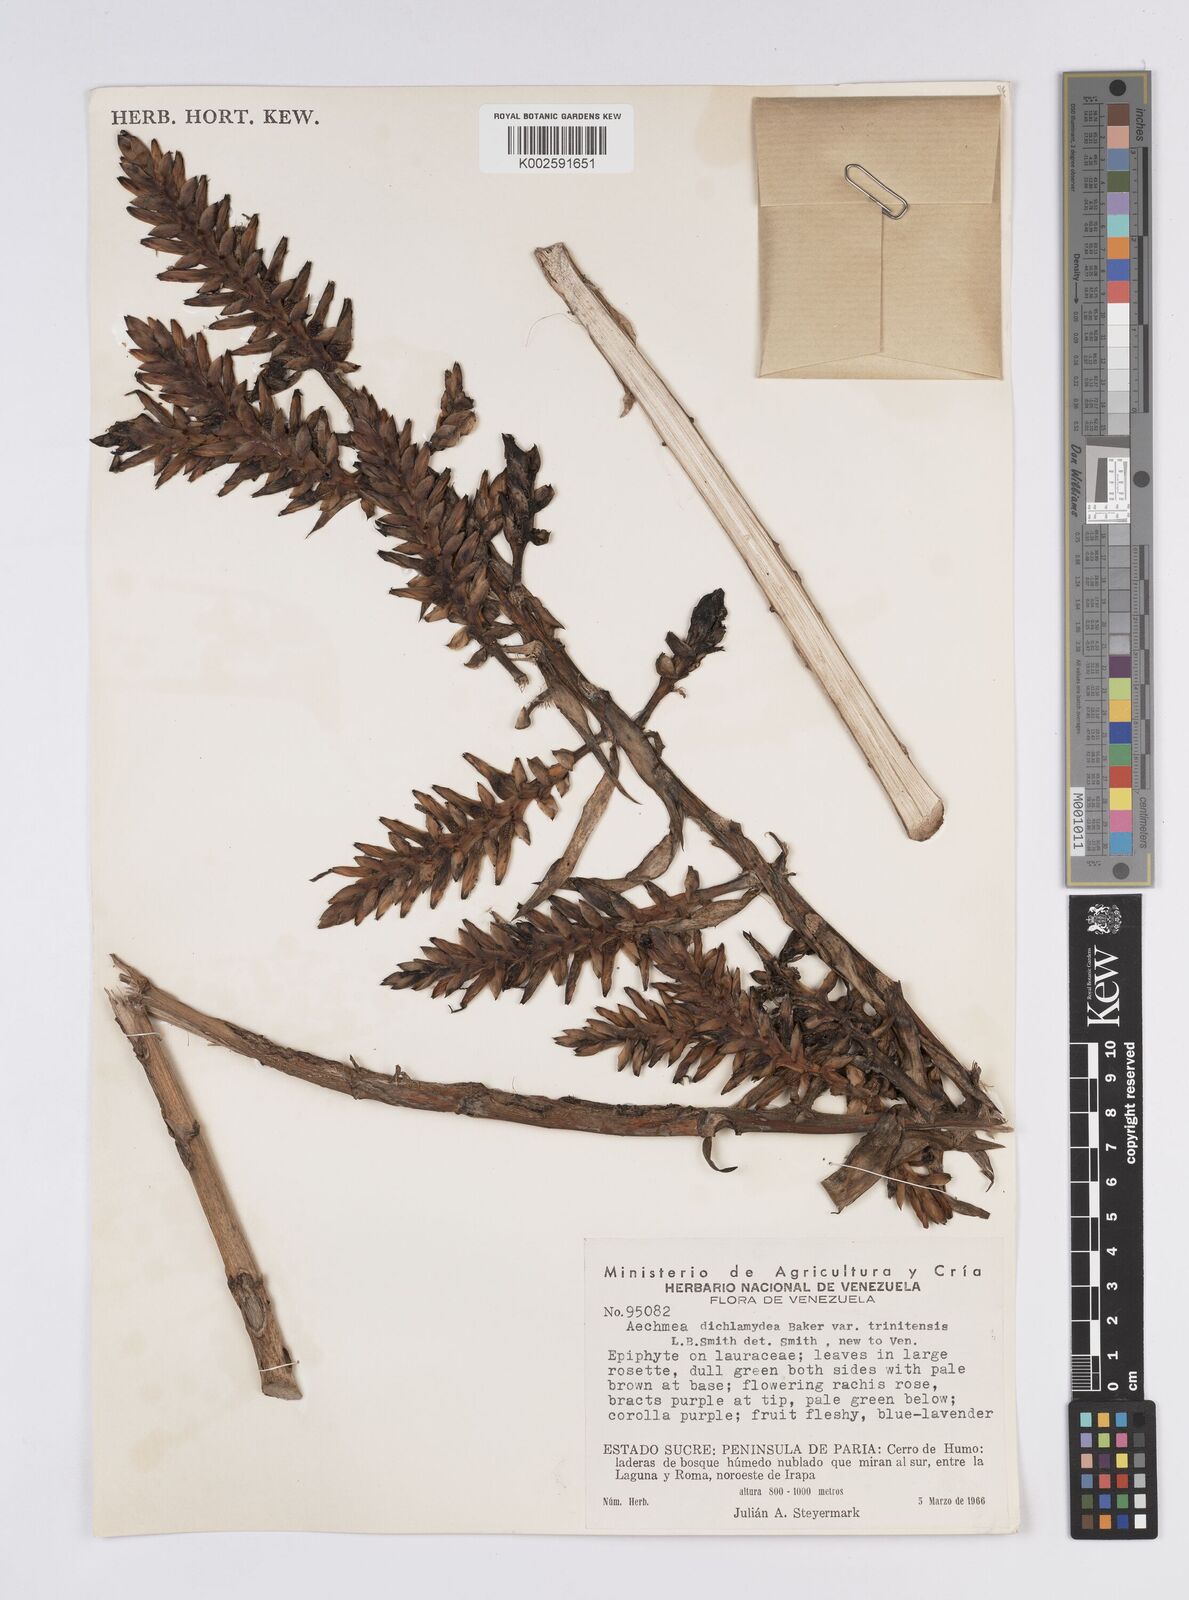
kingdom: Plantae
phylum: Tracheophyta
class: Liliopsida
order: Poales
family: Bromeliaceae
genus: Aechmea
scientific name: Aechmea dichlamydea
